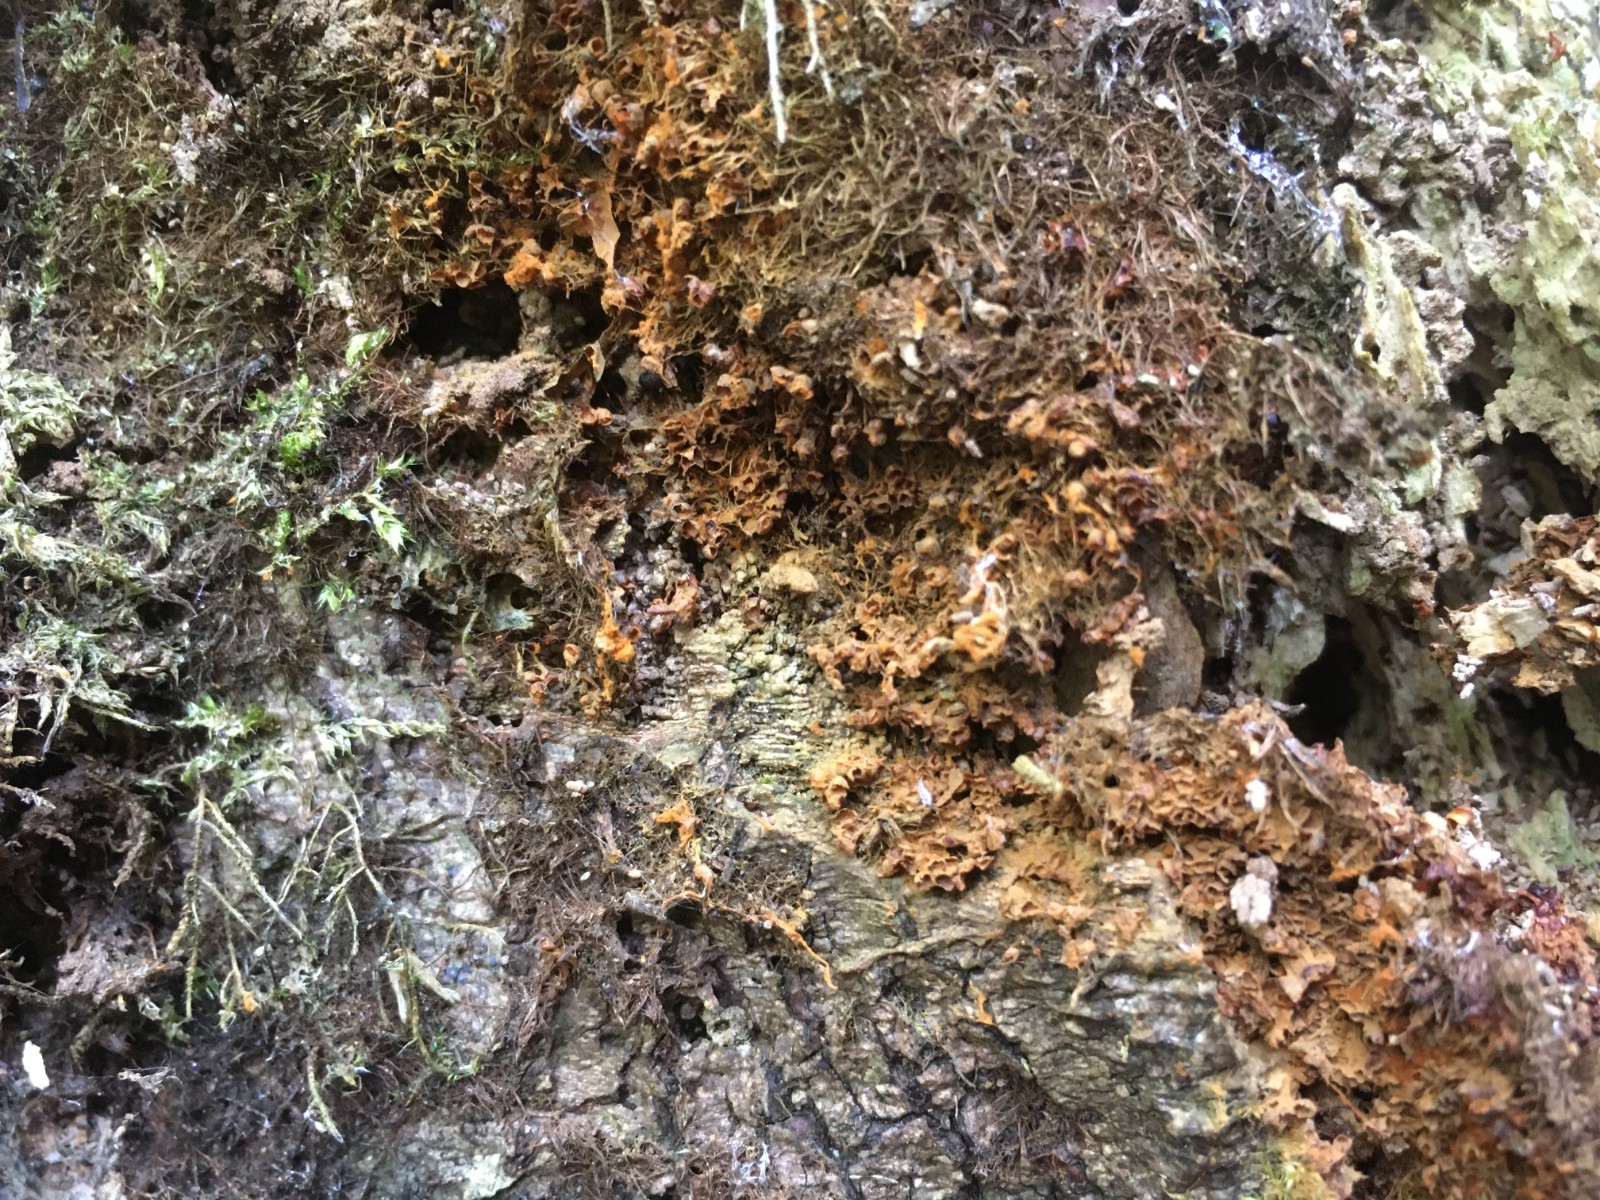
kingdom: Protozoa
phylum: Mycetozoa
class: Myxomycetes
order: Trichiales
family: Trichiaceae
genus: Metatrichia
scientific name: Metatrichia floriformis
